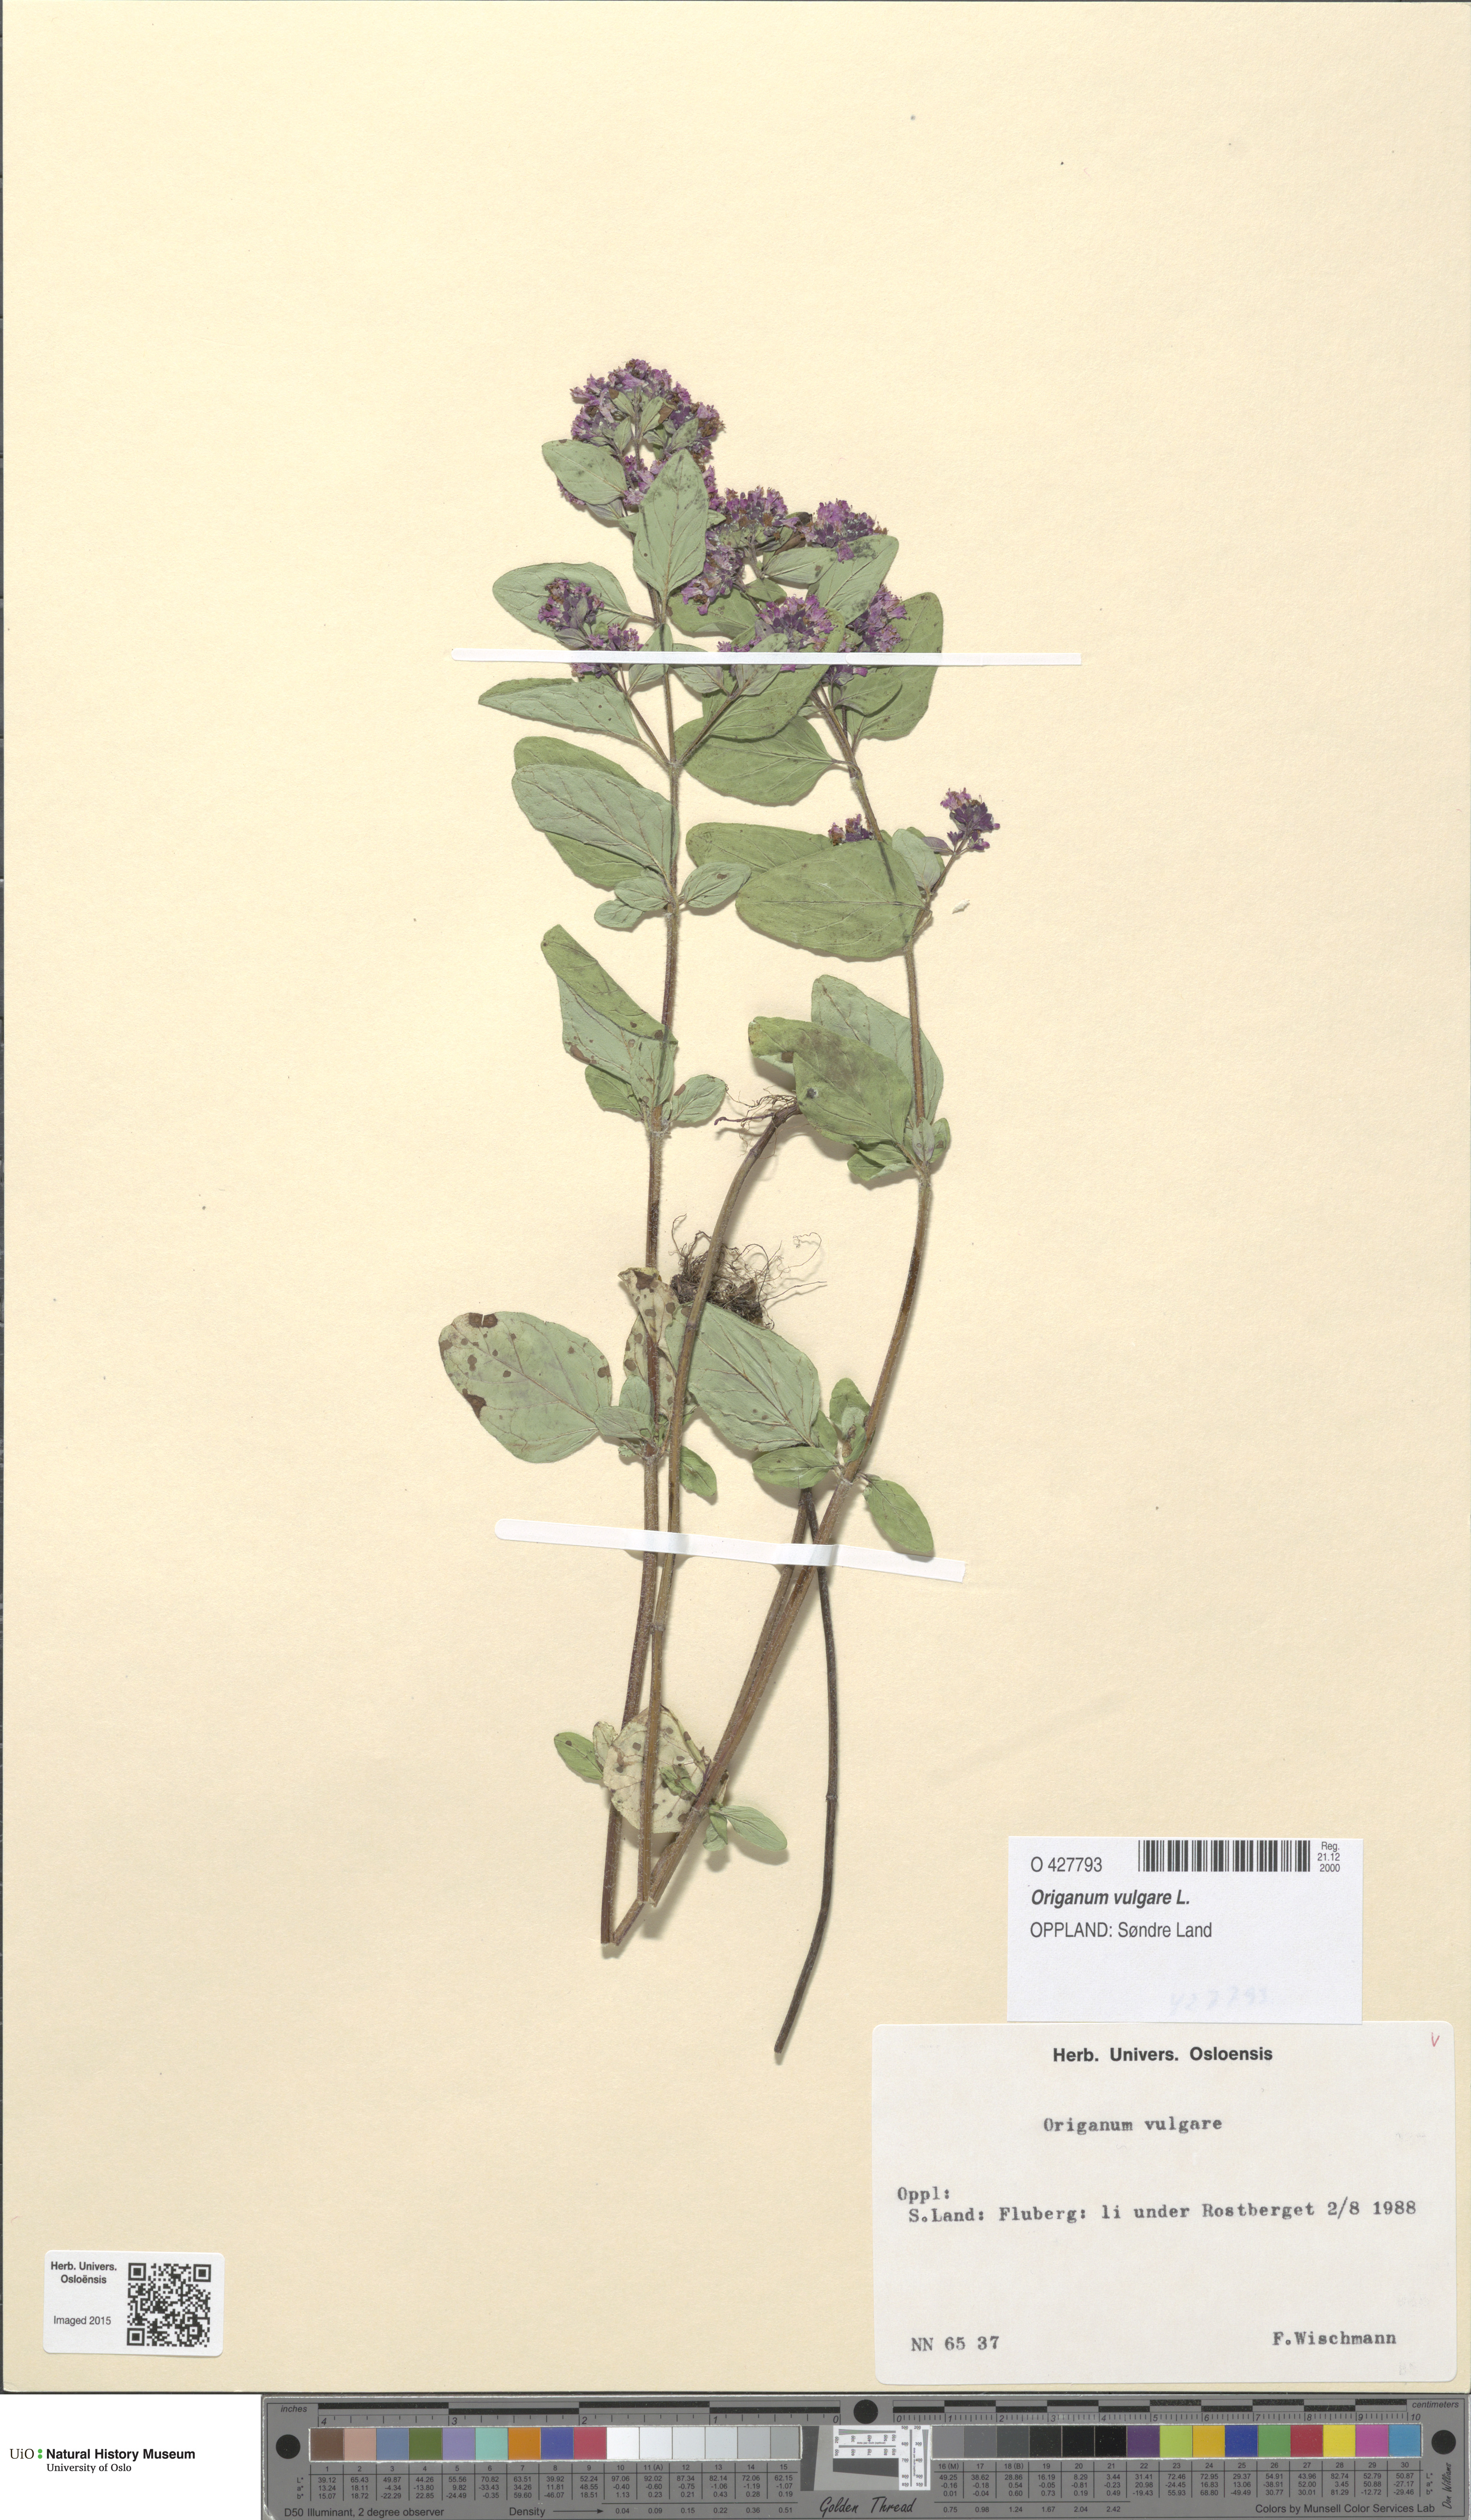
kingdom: Plantae
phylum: Tracheophyta
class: Magnoliopsida
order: Lamiales
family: Lamiaceae
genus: Origanum
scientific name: Origanum vulgare
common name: Wild marjoram
